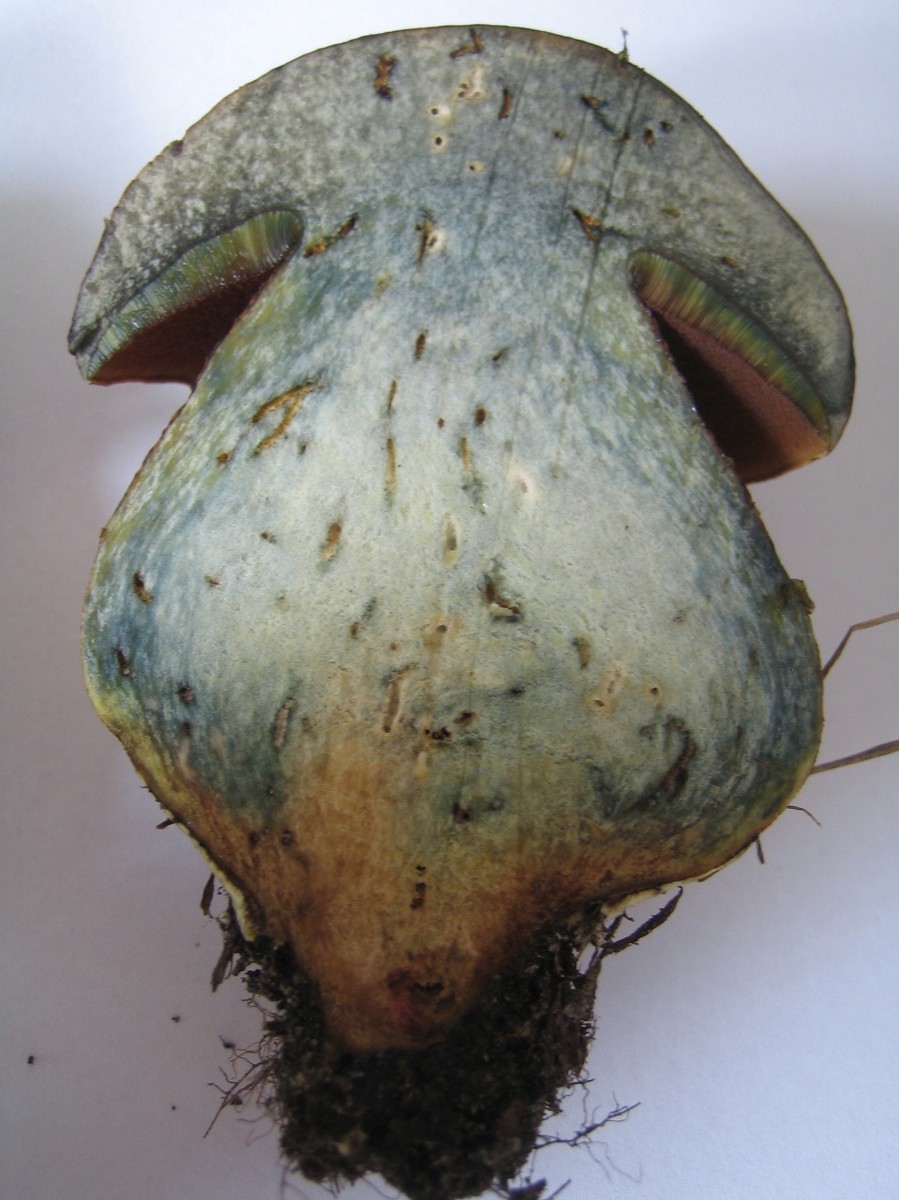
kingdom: Fungi
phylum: Basidiomycota
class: Agaricomycetes
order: Boletales
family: Boletaceae
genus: Suillellus
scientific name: Suillellus luridus
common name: netstokket indigorørhat
